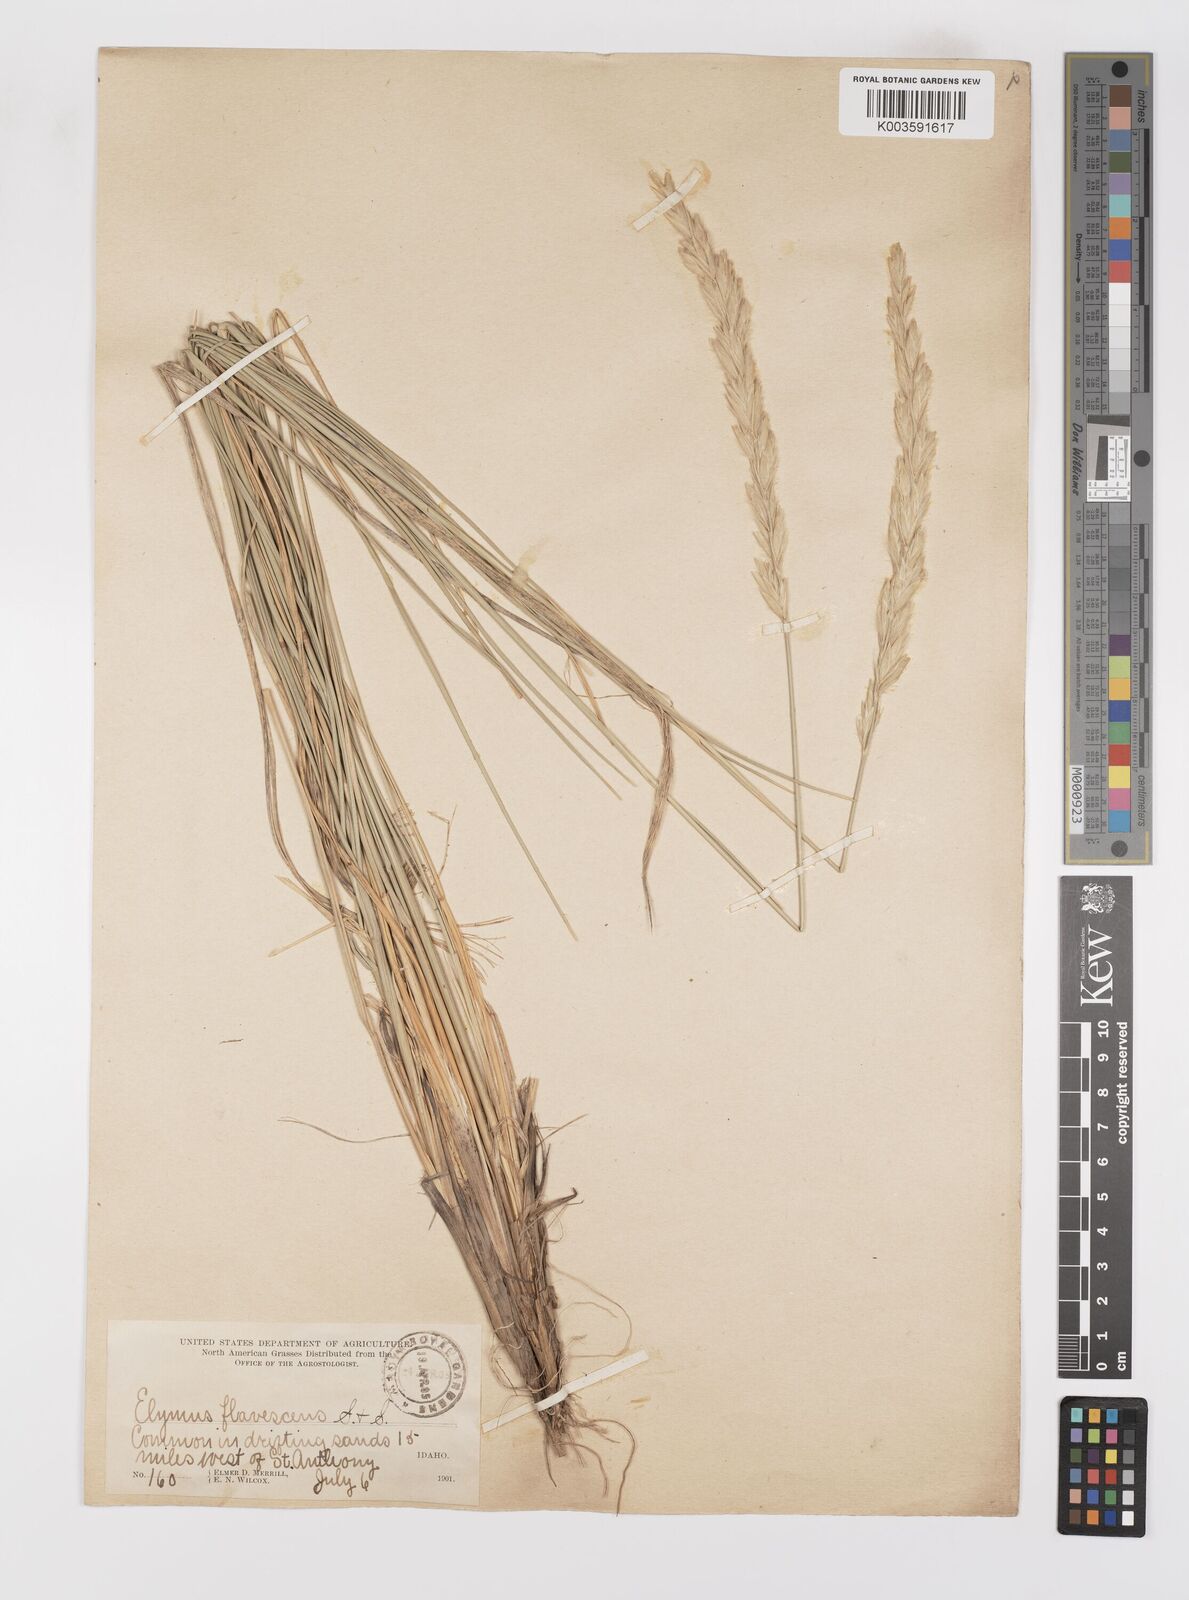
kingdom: Plantae
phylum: Tracheophyta
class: Liliopsida
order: Poales
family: Poaceae
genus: Leymus
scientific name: Leymus flavescens
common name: Yellow wild rye
